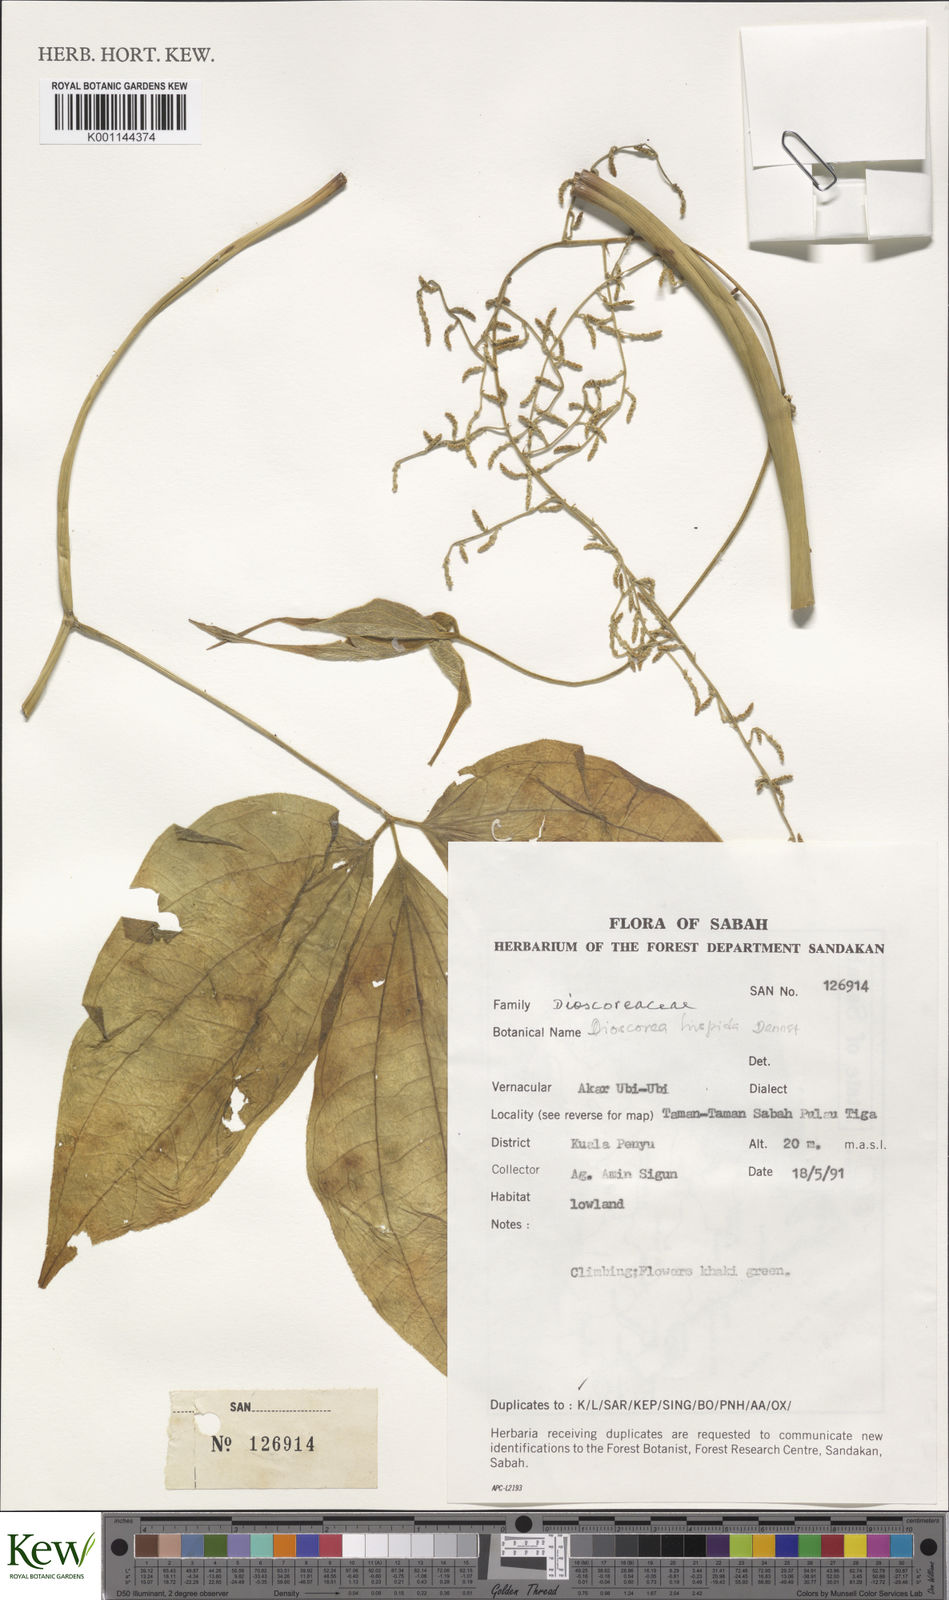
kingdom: Plantae
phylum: Tracheophyta
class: Liliopsida
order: Dioscoreales
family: Dioscoreaceae
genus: Dioscorea
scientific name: Dioscorea hispida
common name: Asiatic bitter yam
